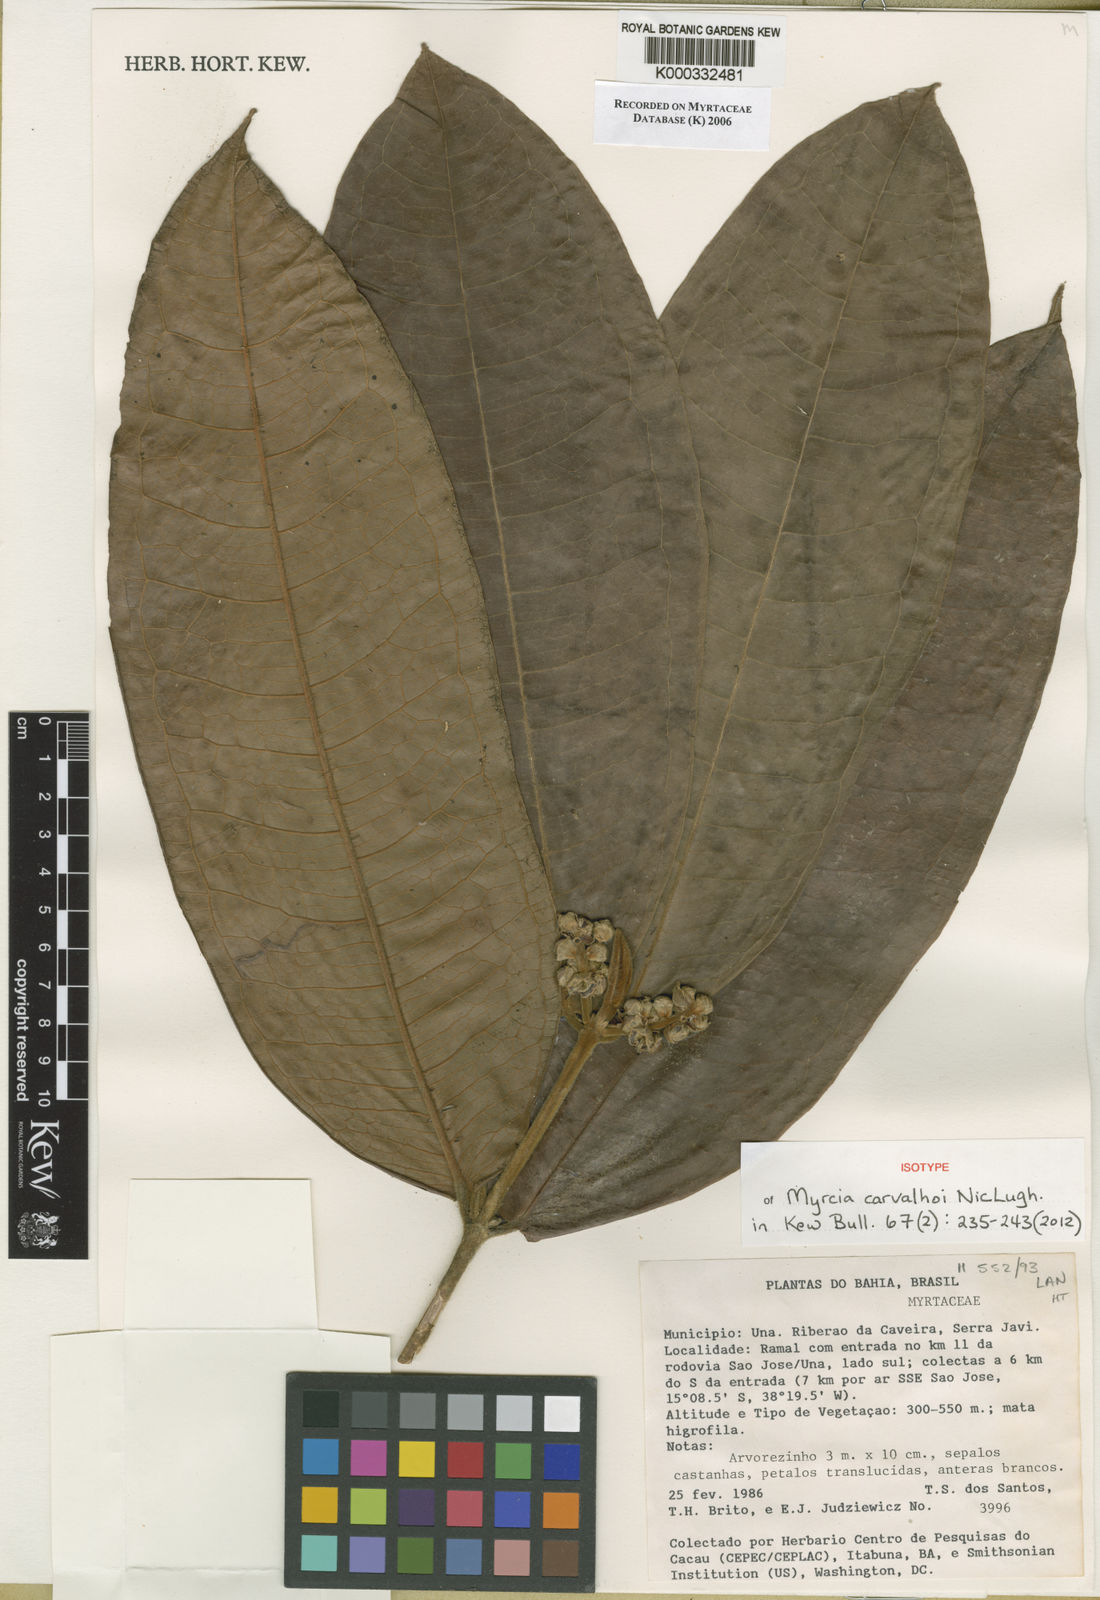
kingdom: Plantae
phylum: Tracheophyta
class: Magnoliopsida
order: Myrtales
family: Myrtaceae
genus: Myrcia
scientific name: Myrcia carvalhoi
